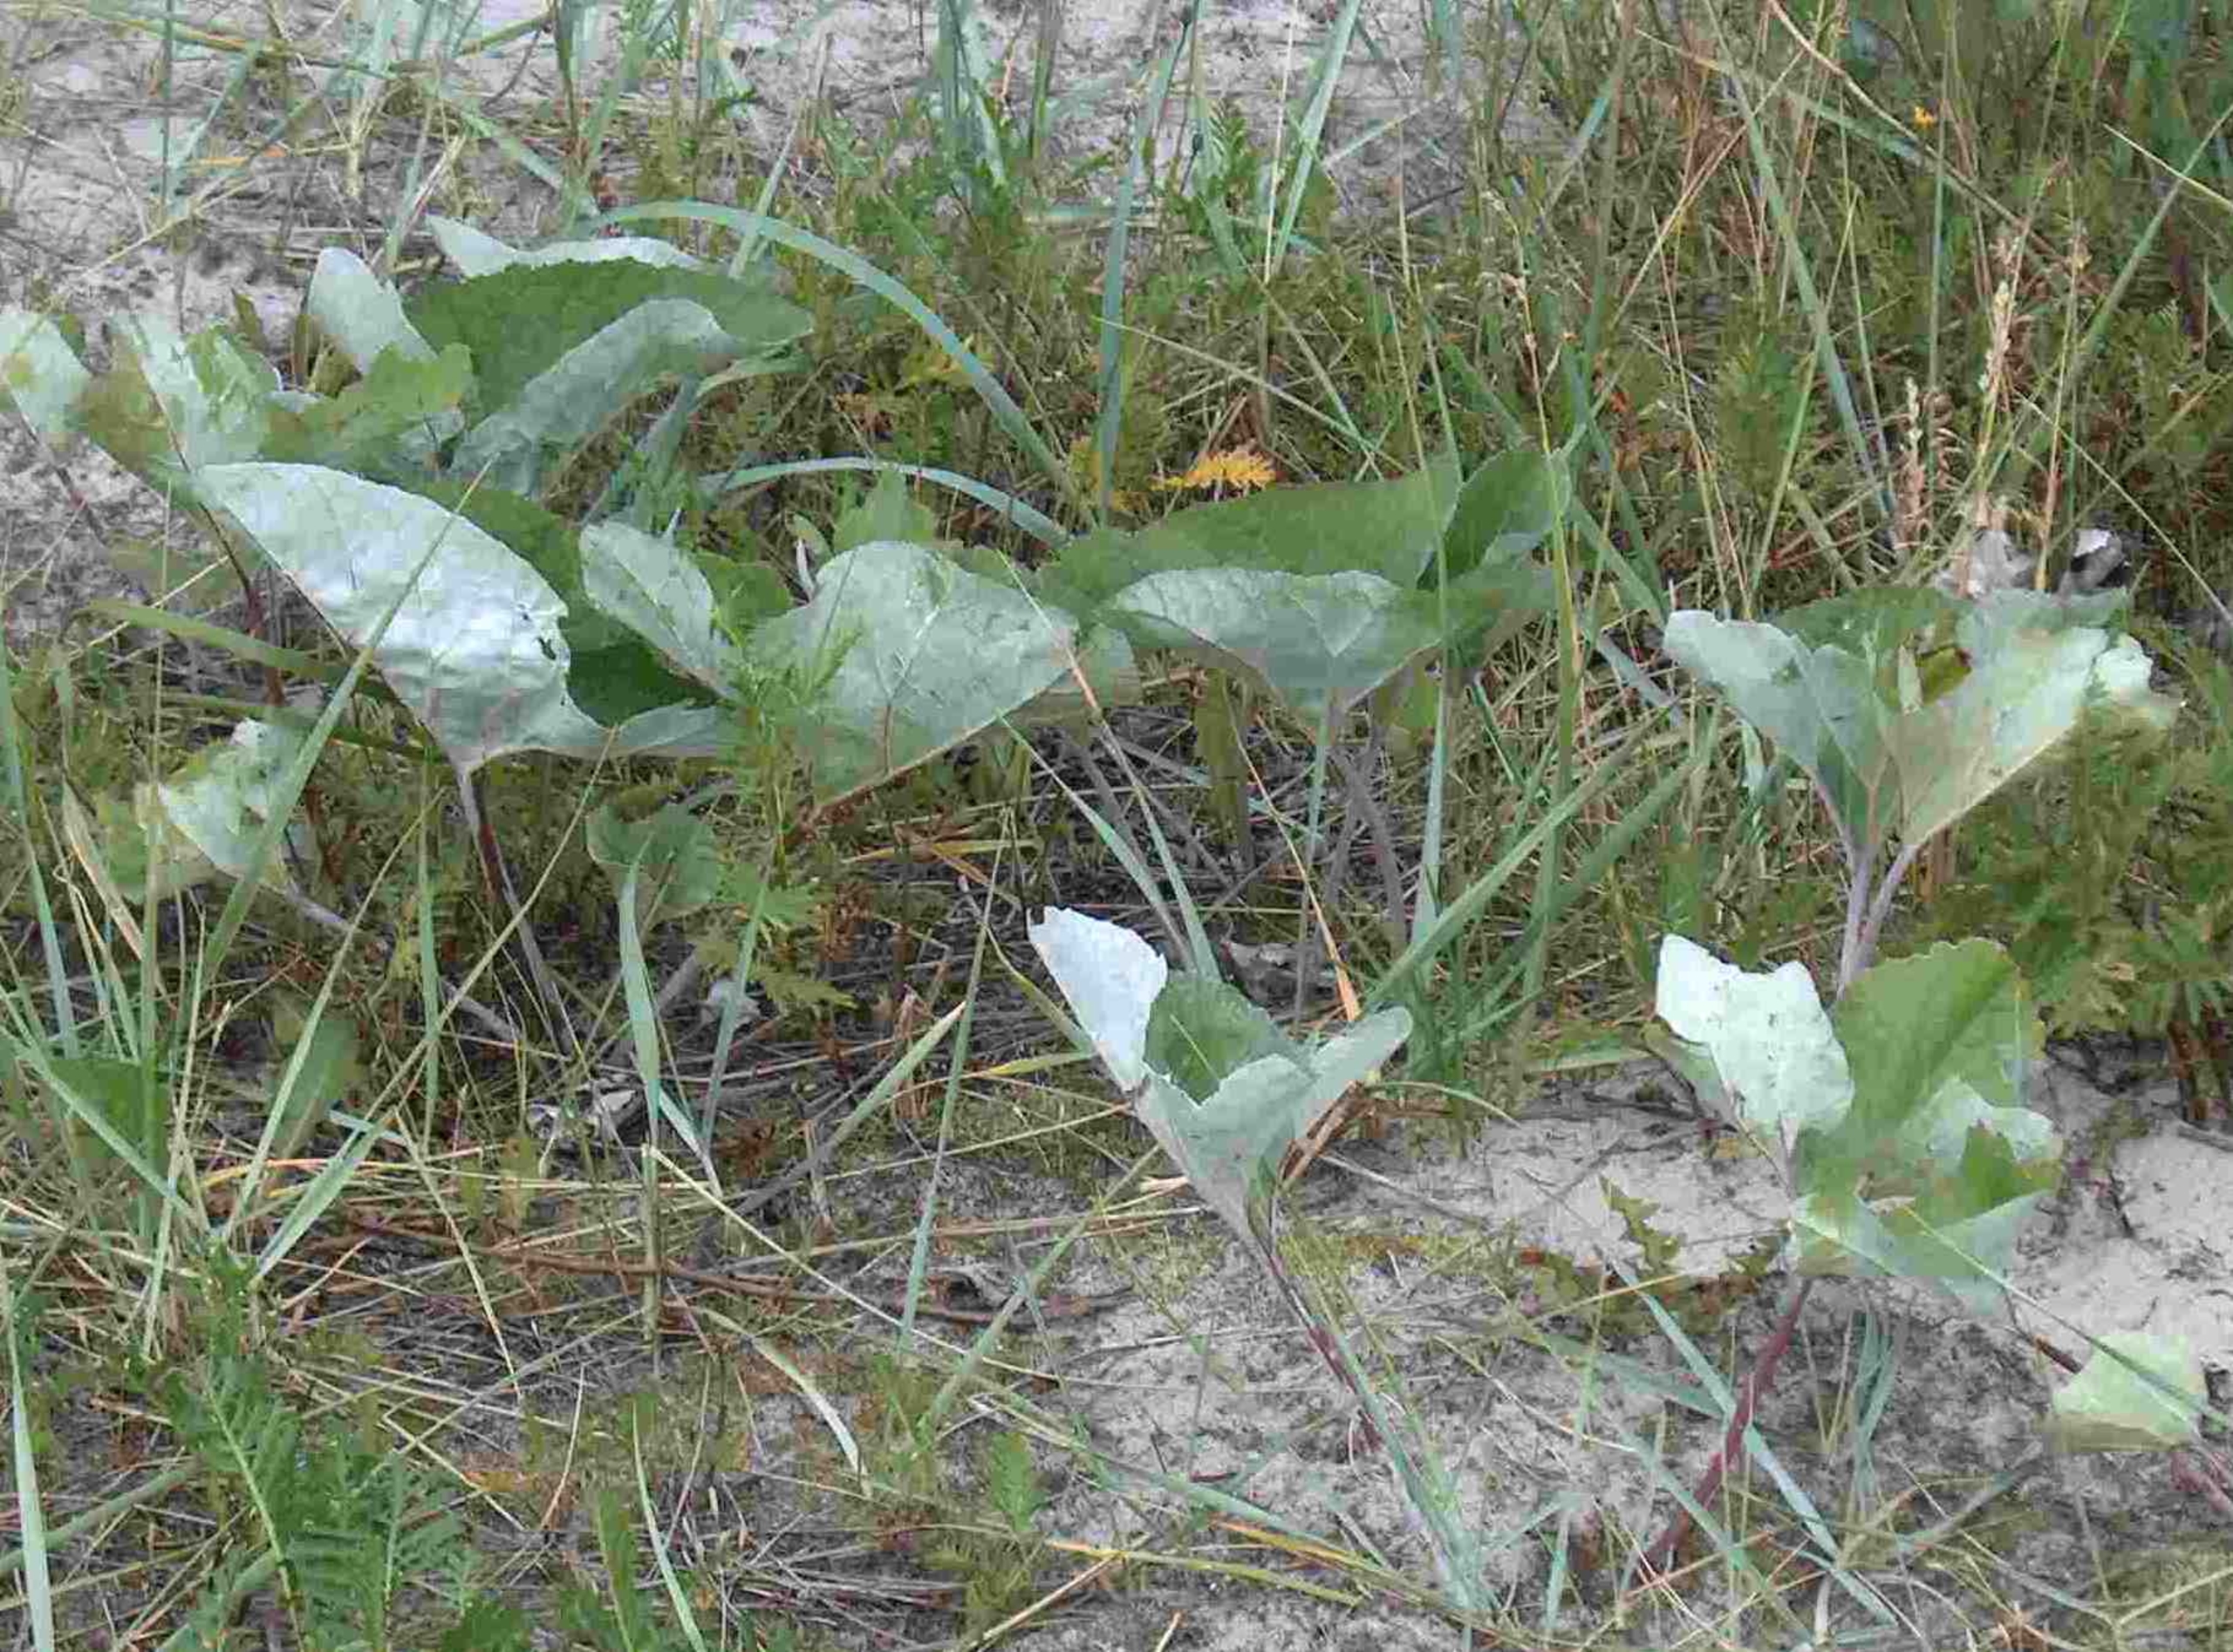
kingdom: Plantae
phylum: Tracheophyta
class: Magnoliopsida
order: Asterales
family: Asteraceae
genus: Petasites
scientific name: Petasites spurius
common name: Filtet hestehov
